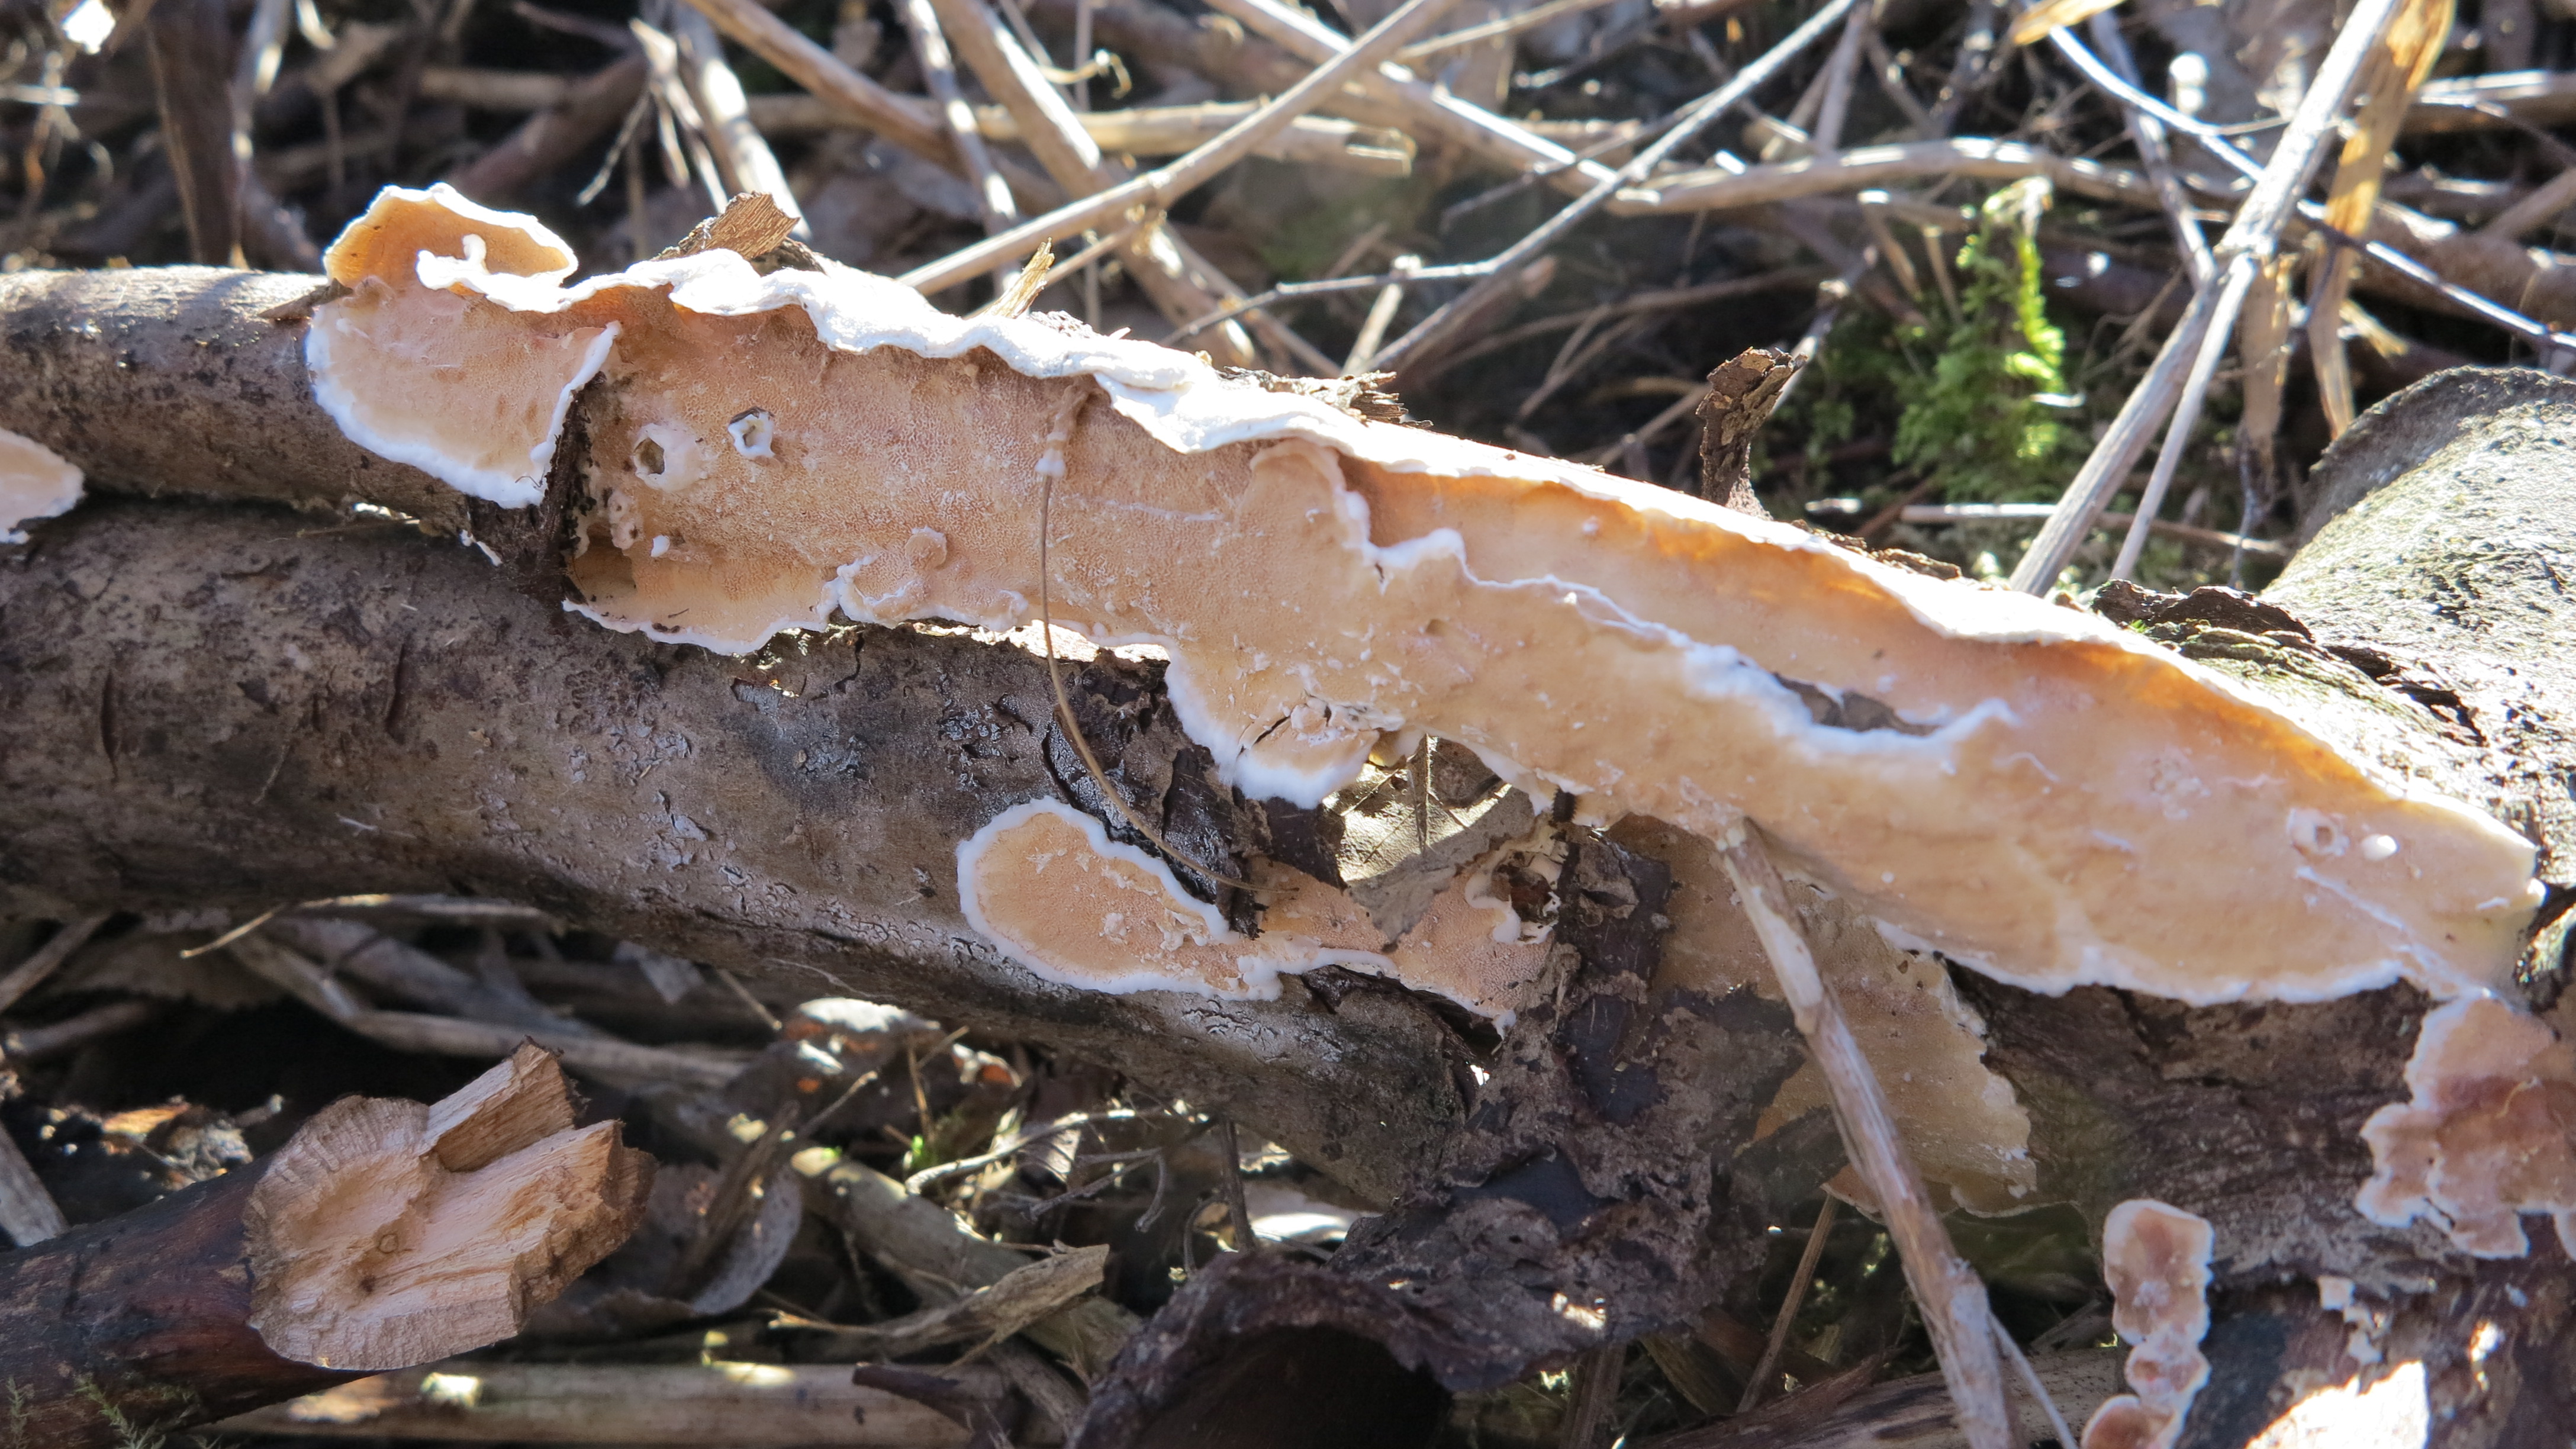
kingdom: Fungi
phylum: Basidiomycota
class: Agaricomycetes
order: Polyporales
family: Irpicaceae
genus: Byssomerulius
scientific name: Byssomerulius corium
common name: Netted crust
